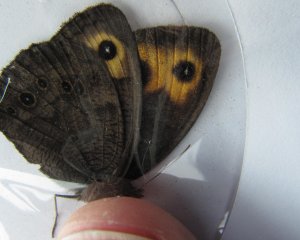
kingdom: Animalia
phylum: Arthropoda
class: Insecta
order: Lepidoptera
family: Nymphalidae
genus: Cercyonis
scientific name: Cercyonis pegala
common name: Common Wood-Nymph
